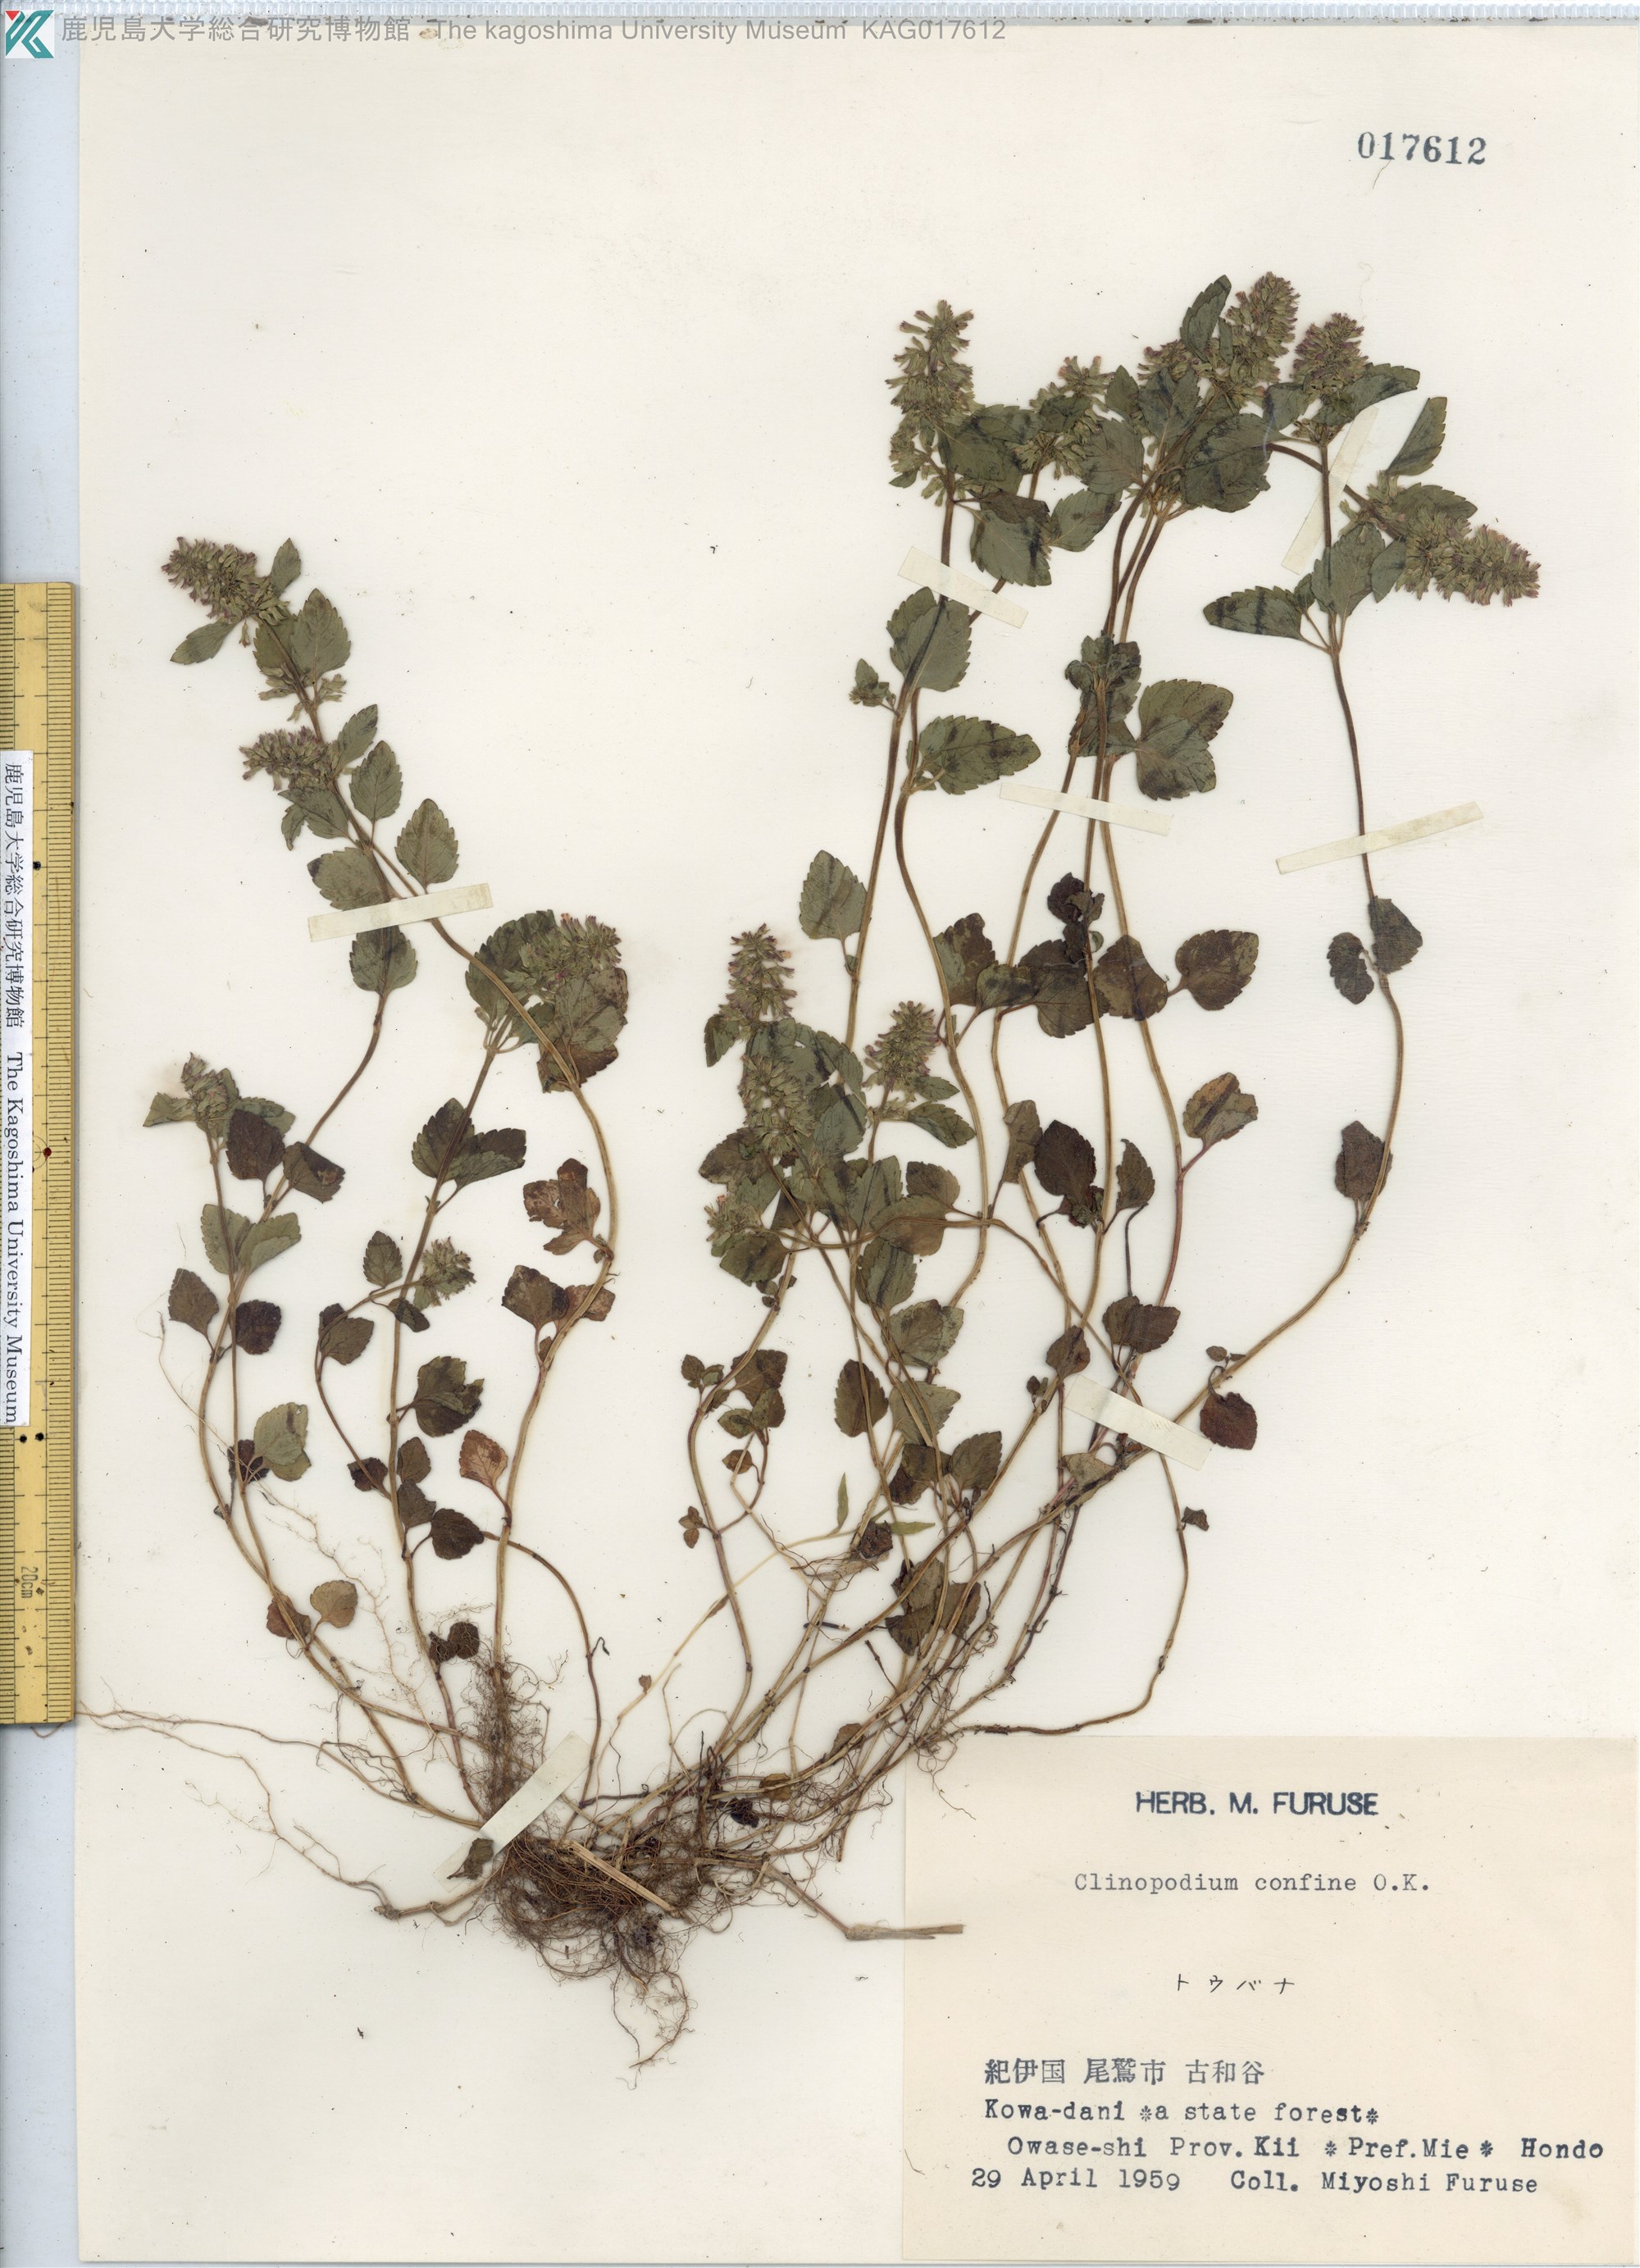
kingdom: Plantae
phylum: Tracheophyta
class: Magnoliopsida
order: Lamiales
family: Lamiaceae
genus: Clinopodium
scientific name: Clinopodium gracile
